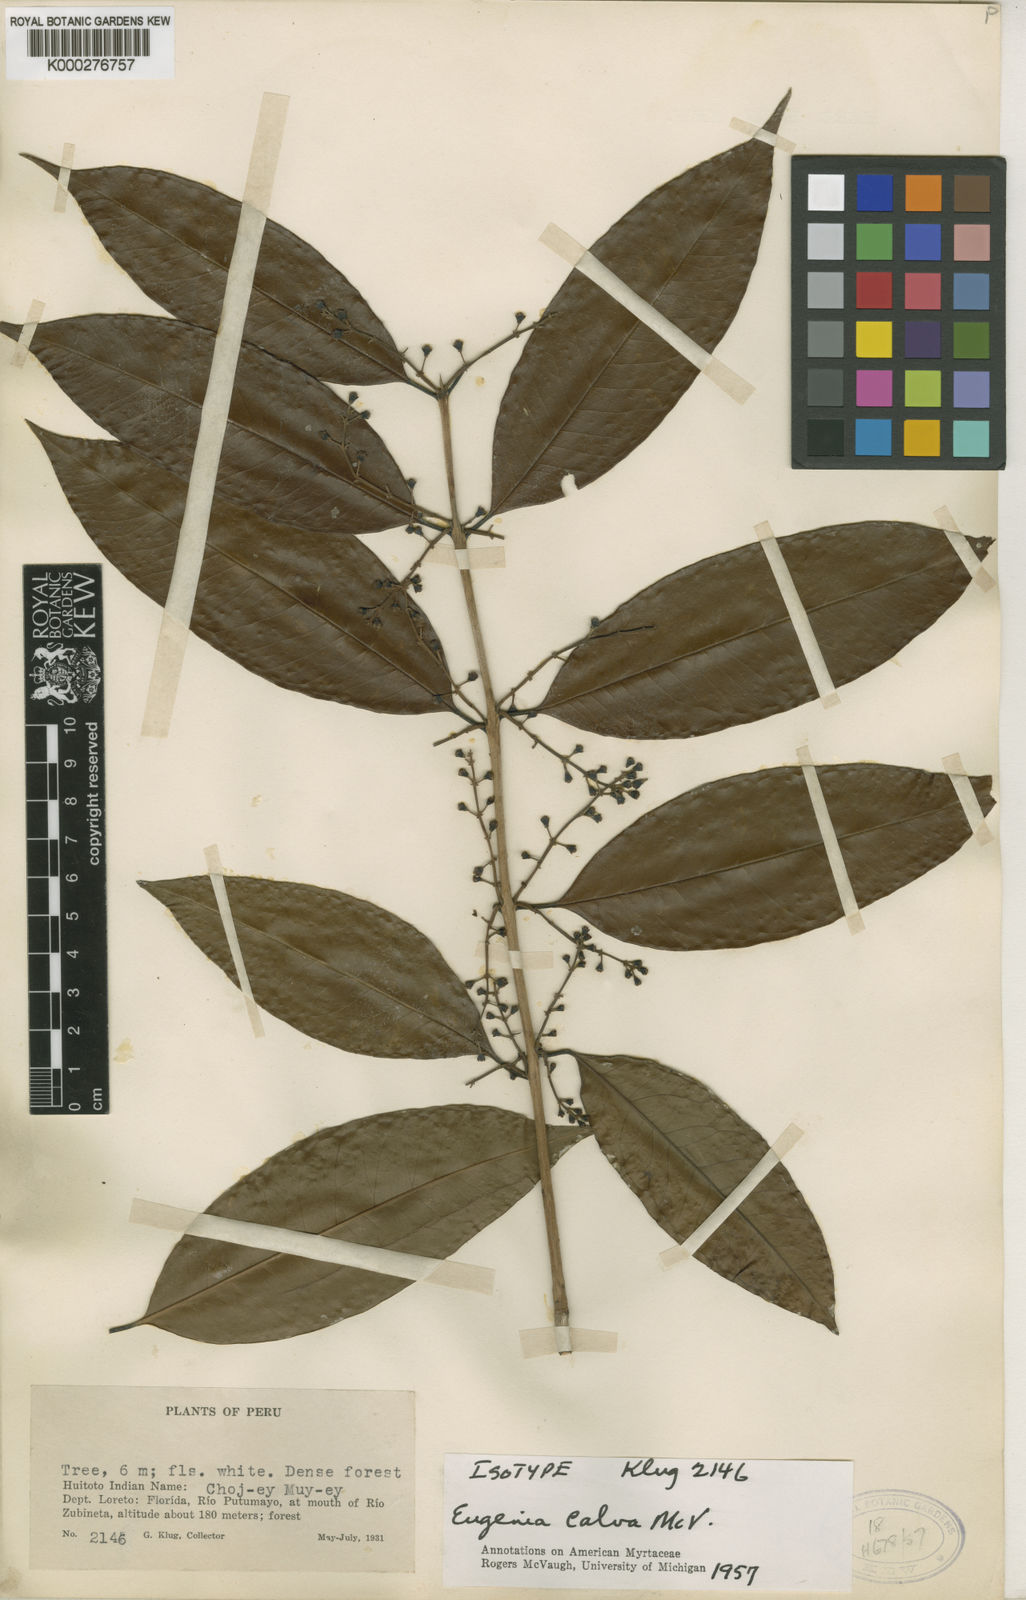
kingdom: Plantae
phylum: Tracheophyta
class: Magnoliopsida
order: Myrtales
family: Myrtaceae
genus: Eugenia
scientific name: Eugenia calva
